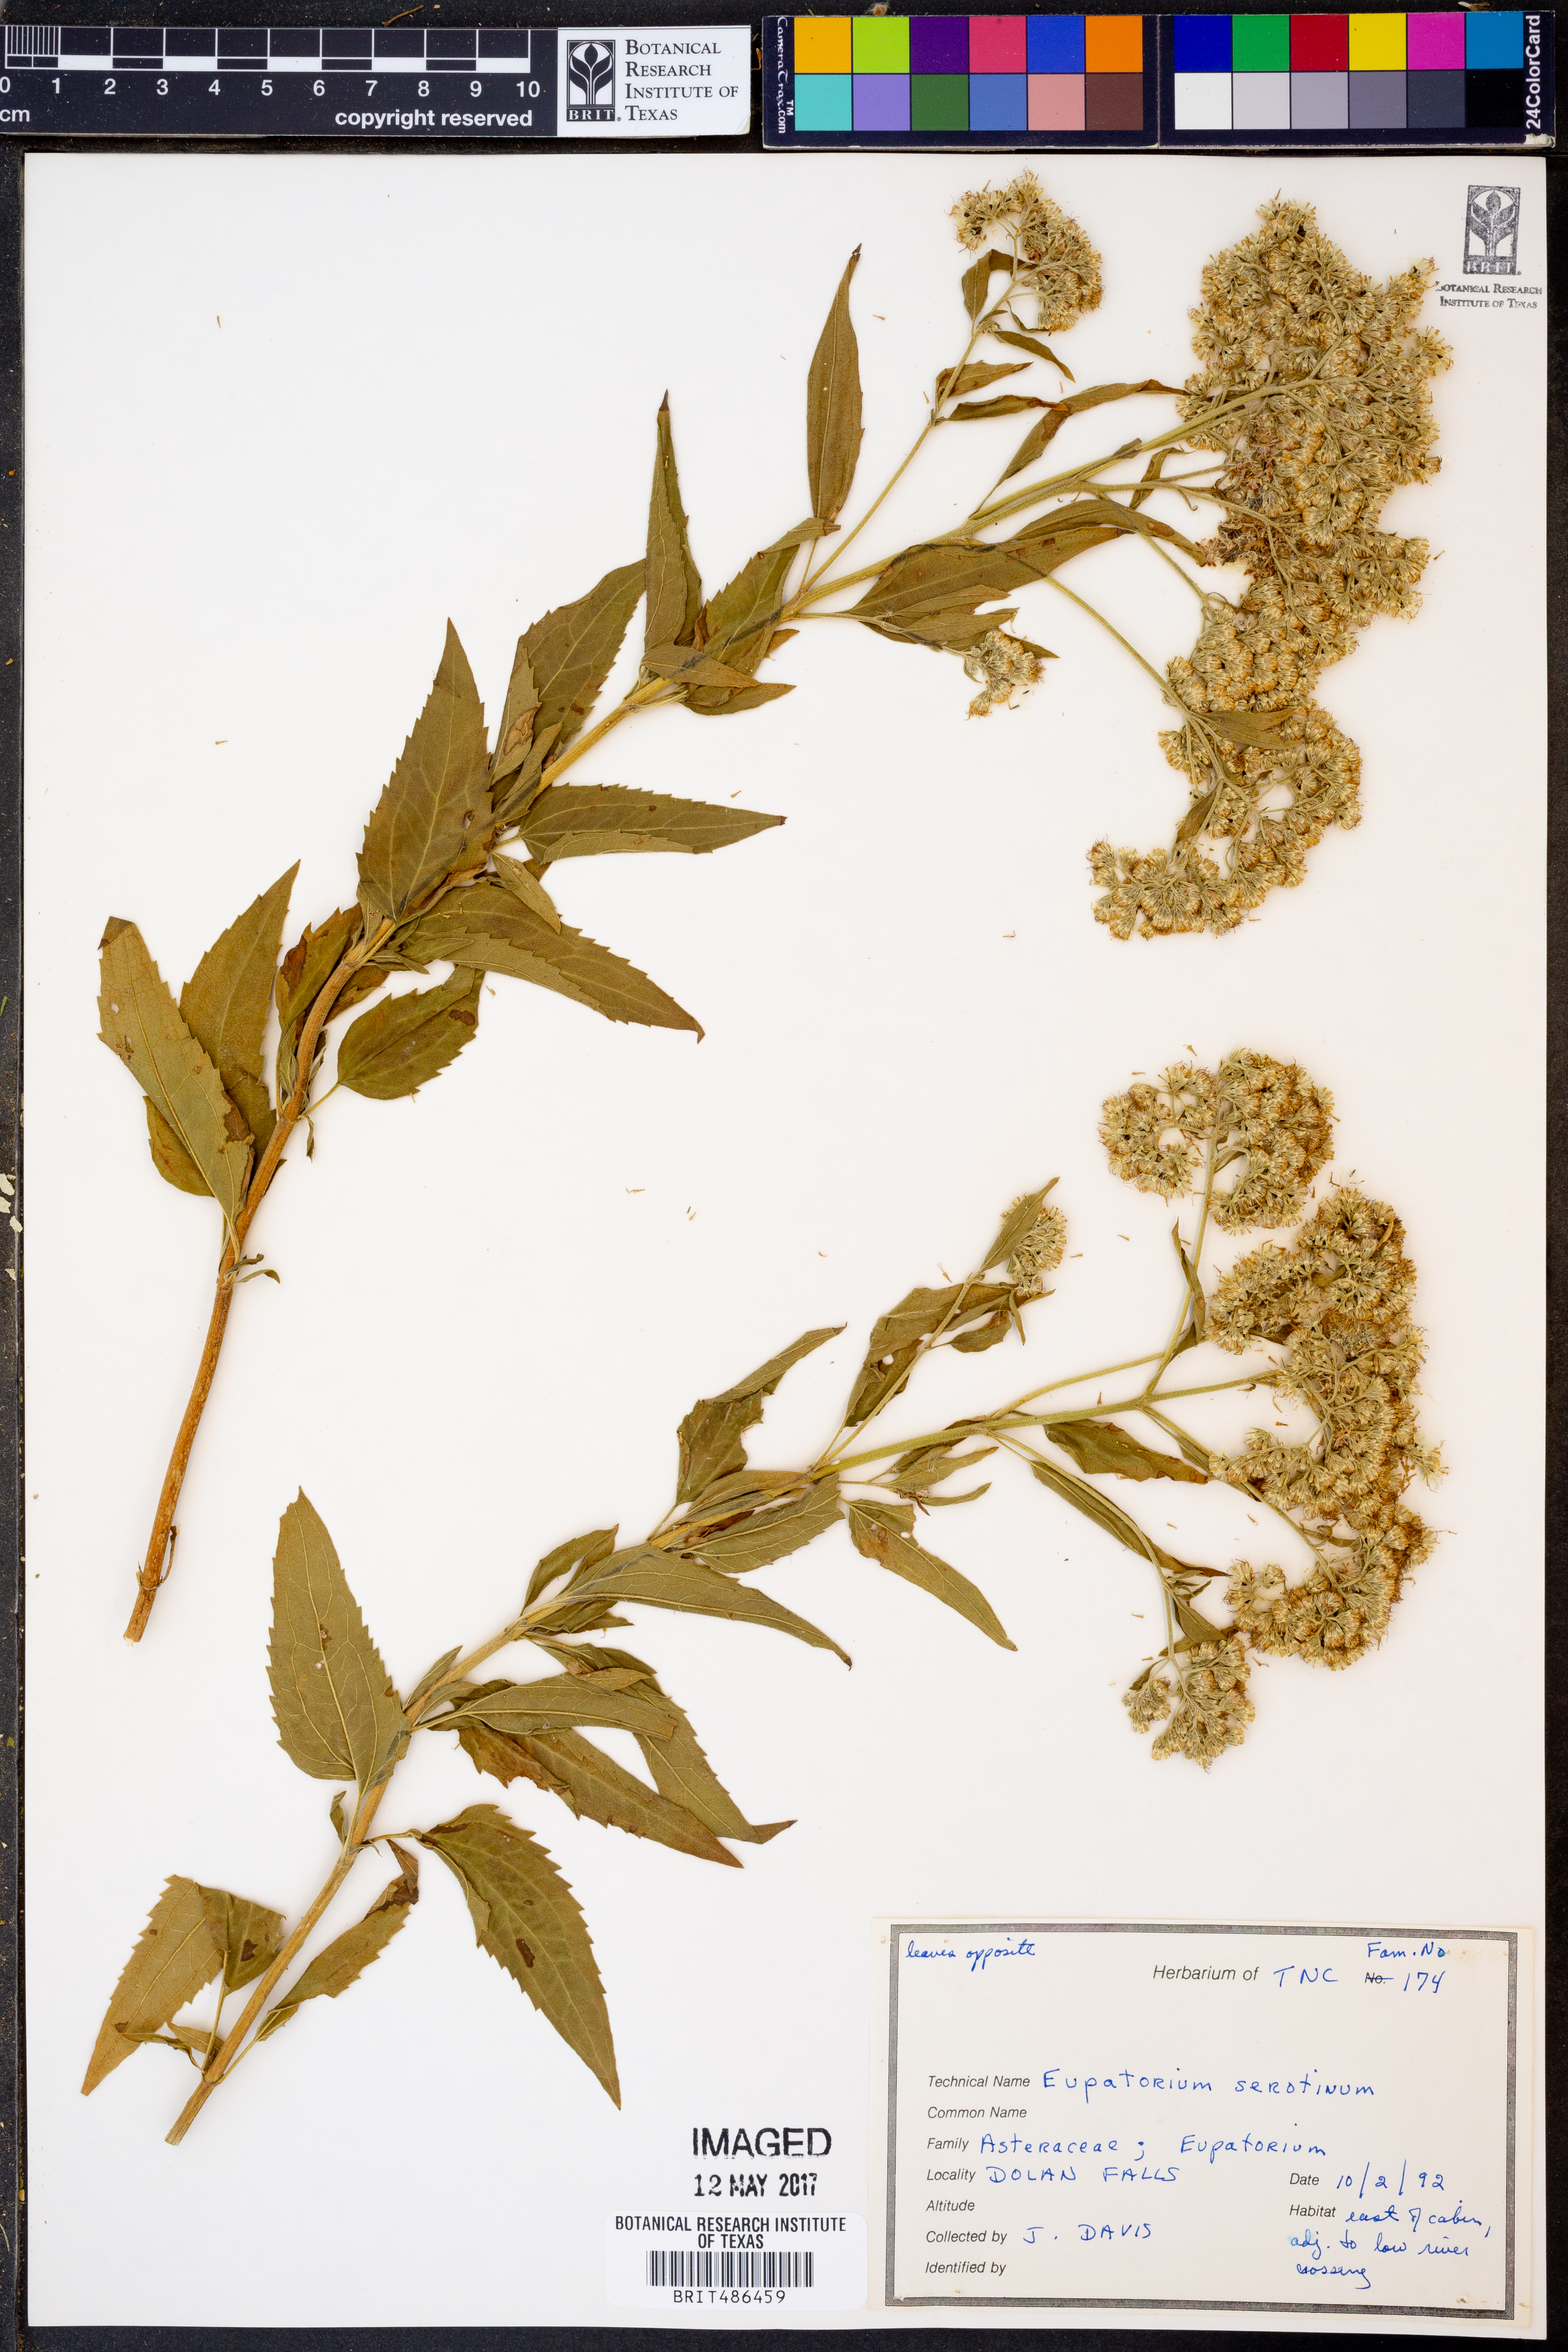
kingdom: Plantae
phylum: Tracheophyta
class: Magnoliopsida
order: Asterales
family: Asteraceae
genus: Eupatorium
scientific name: Eupatorium serotinum
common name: Late boneset
